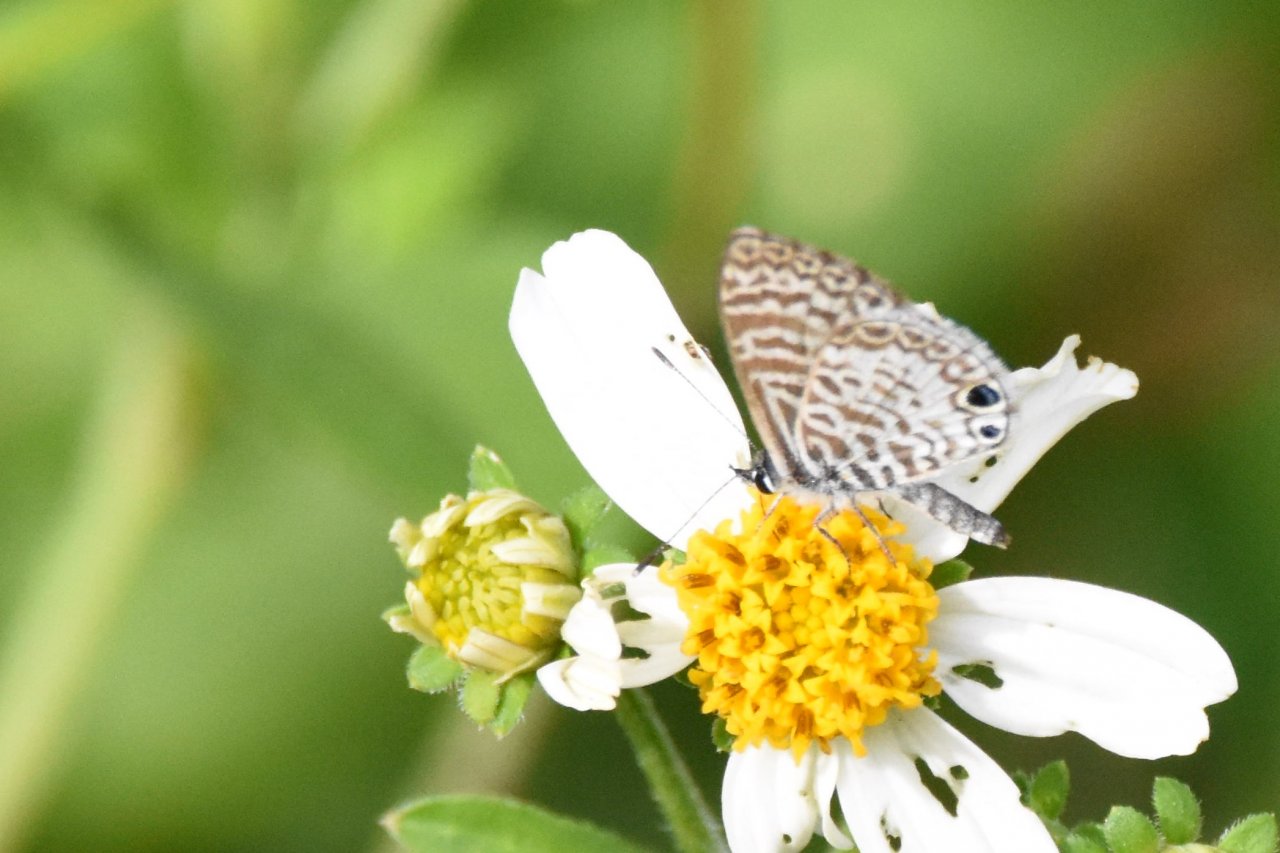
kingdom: Animalia
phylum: Arthropoda
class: Insecta
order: Lepidoptera
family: Lycaenidae
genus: Leptotes
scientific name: Leptotes cassius
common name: Cassius Blue
